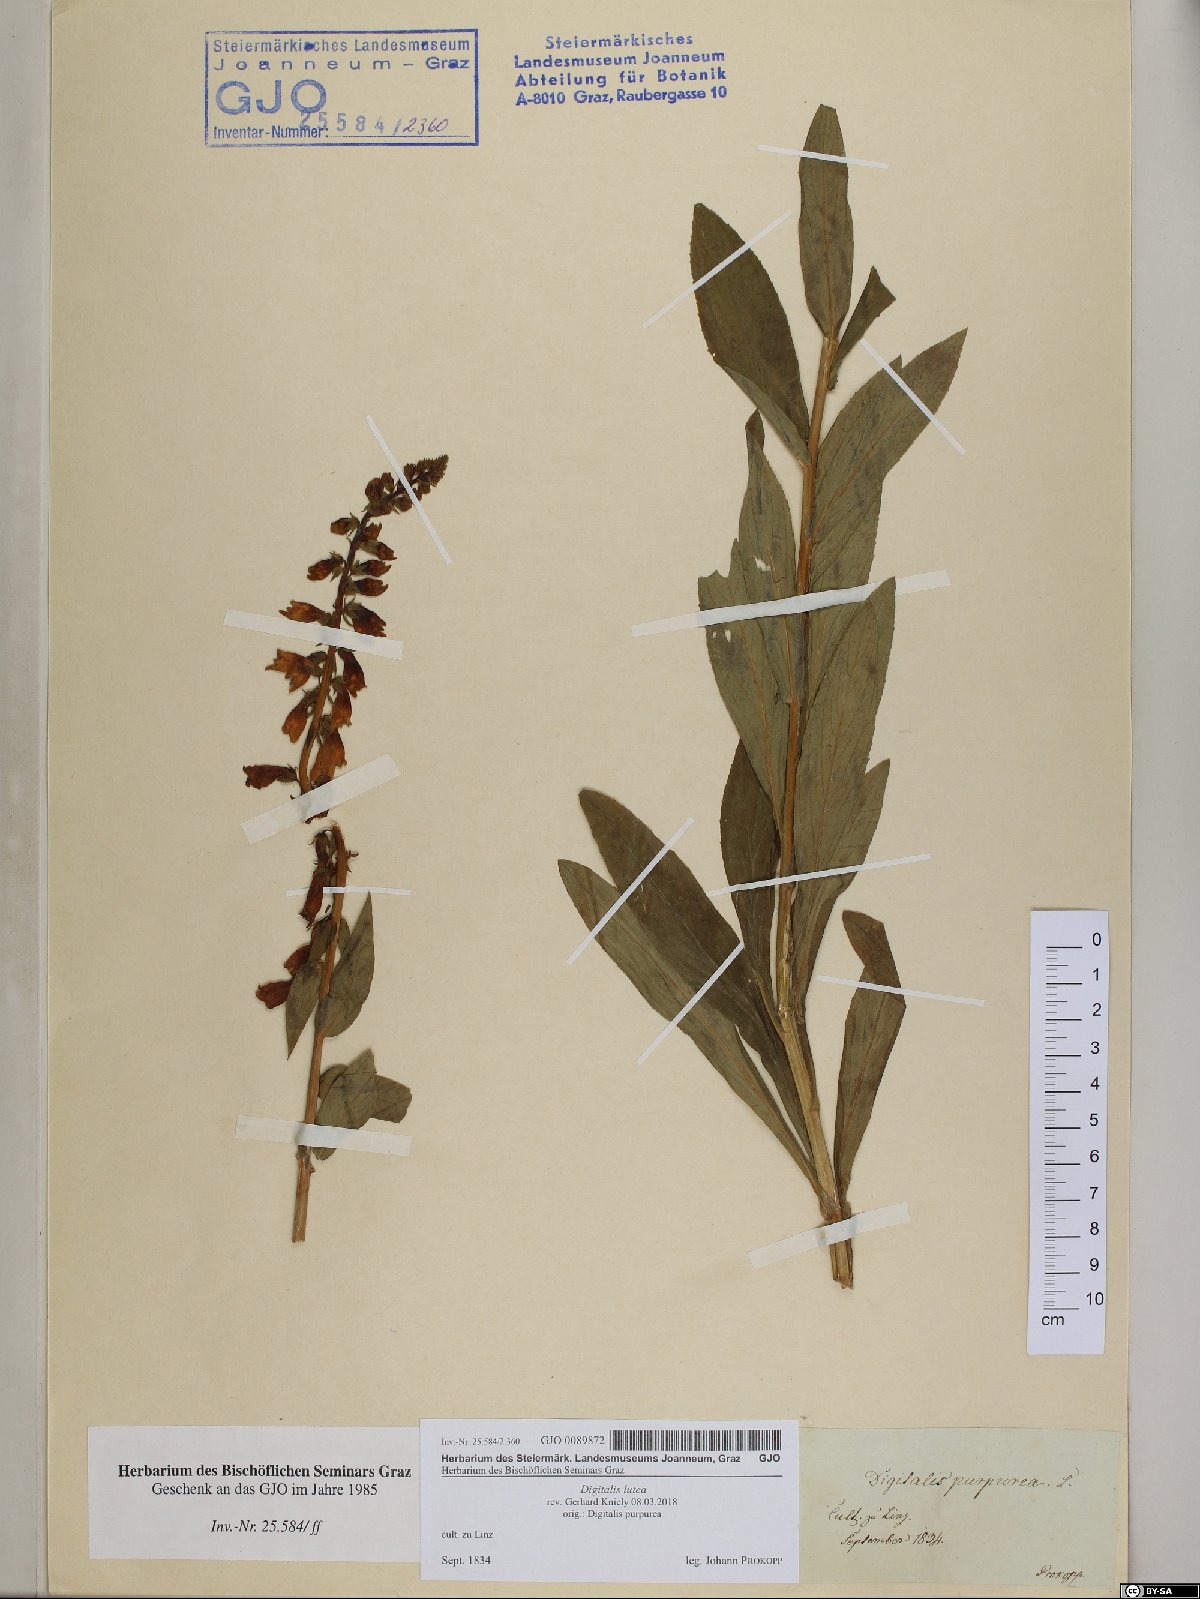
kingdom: Plantae
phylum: Tracheophyta
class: Magnoliopsida
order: Lamiales
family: Plantaginaceae
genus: Digitalis
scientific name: Digitalis lutea
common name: Straw foxglove
